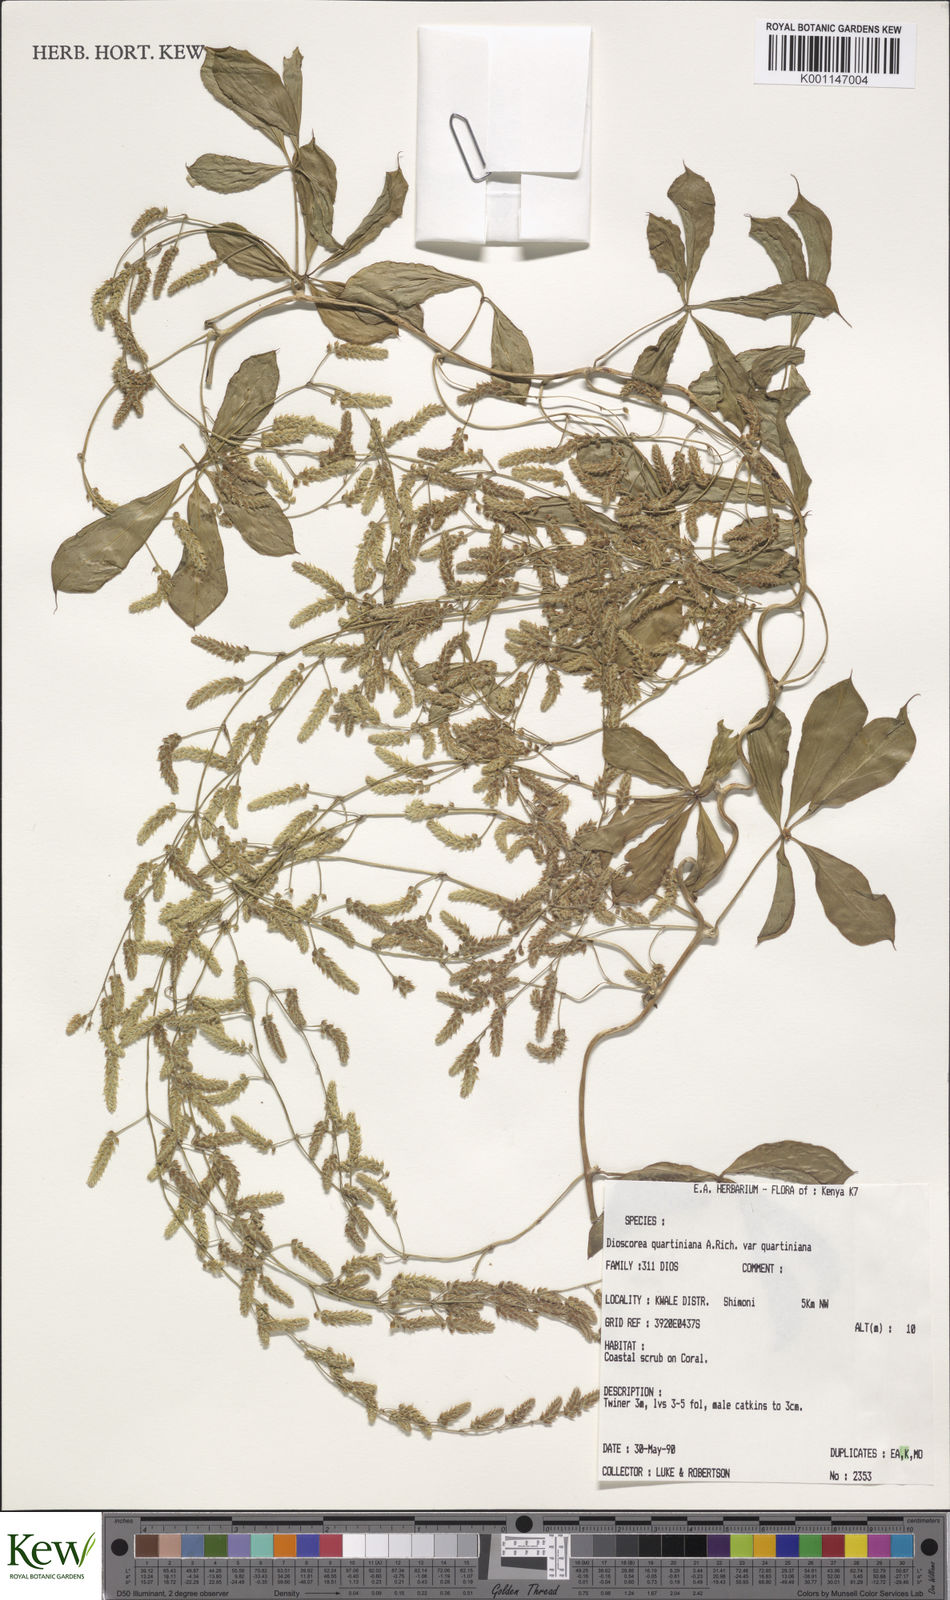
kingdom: Plantae
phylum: Tracheophyta
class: Liliopsida
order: Dioscoreales
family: Dioscoreaceae
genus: Dioscorea
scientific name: Dioscorea quartiniana
